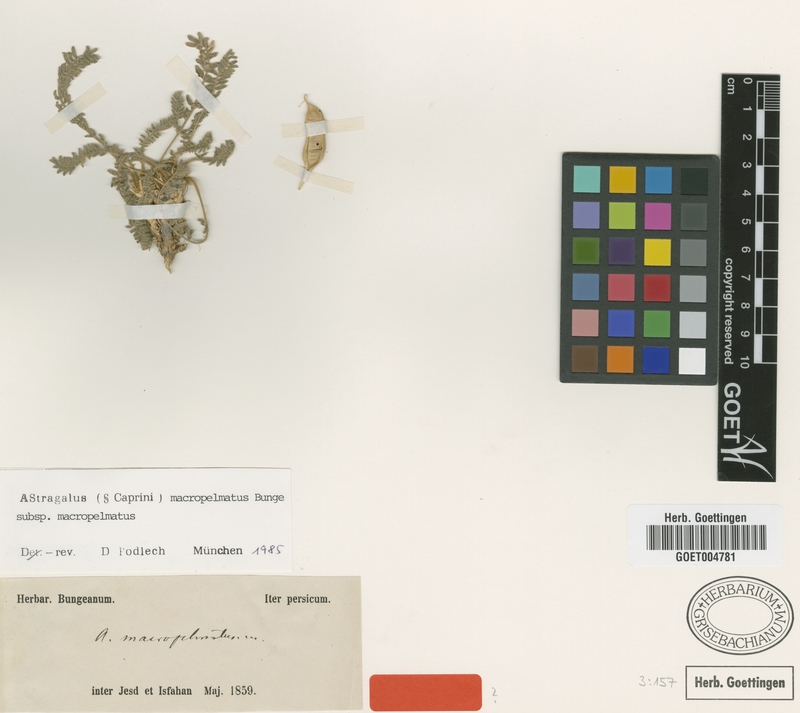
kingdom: Plantae
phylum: Tracheophyta
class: Magnoliopsida
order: Fabales
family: Fabaceae
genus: Astragalus
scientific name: Astragalus macropelmatus
